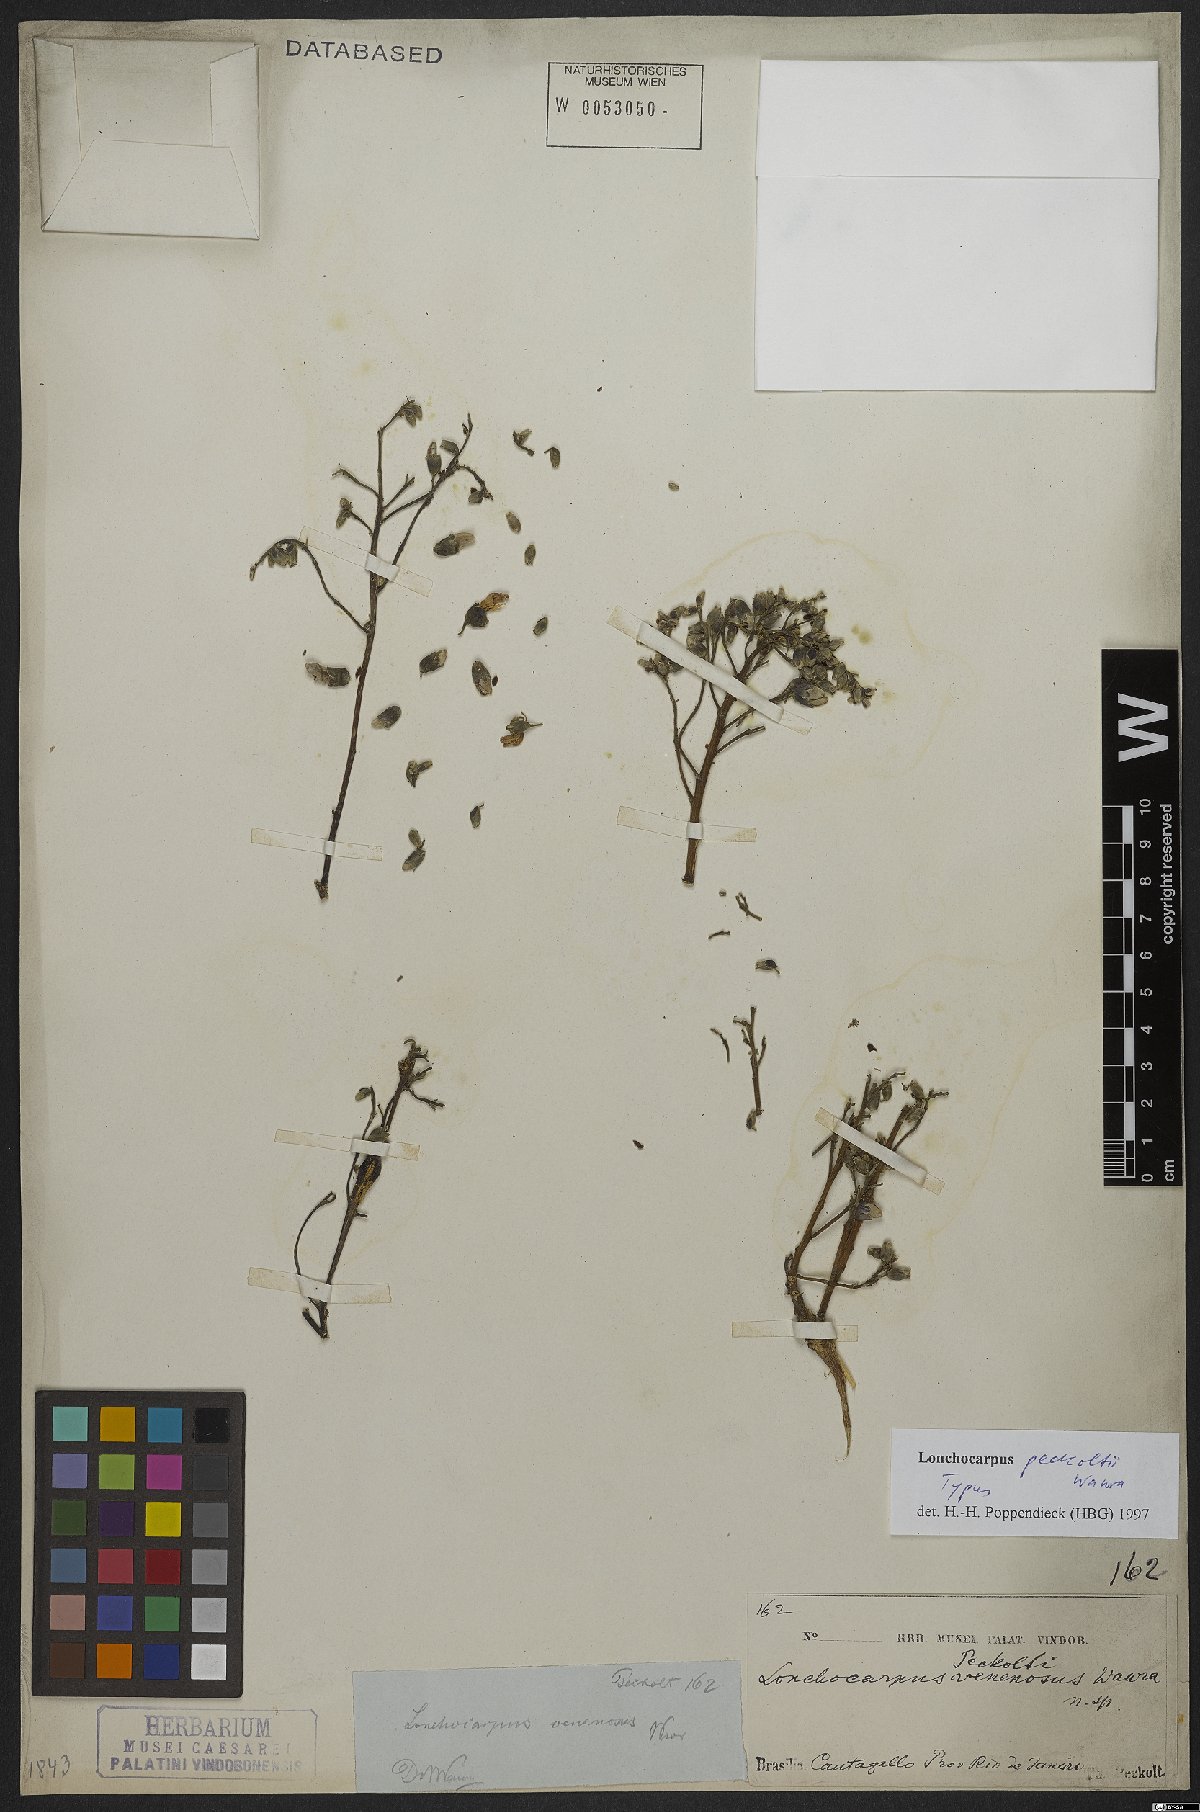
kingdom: Plantae
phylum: Tracheophyta
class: Magnoliopsida
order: Fabales
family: Fabaceae
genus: Dahlstedtia
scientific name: Dahlstedtia peckoltii
